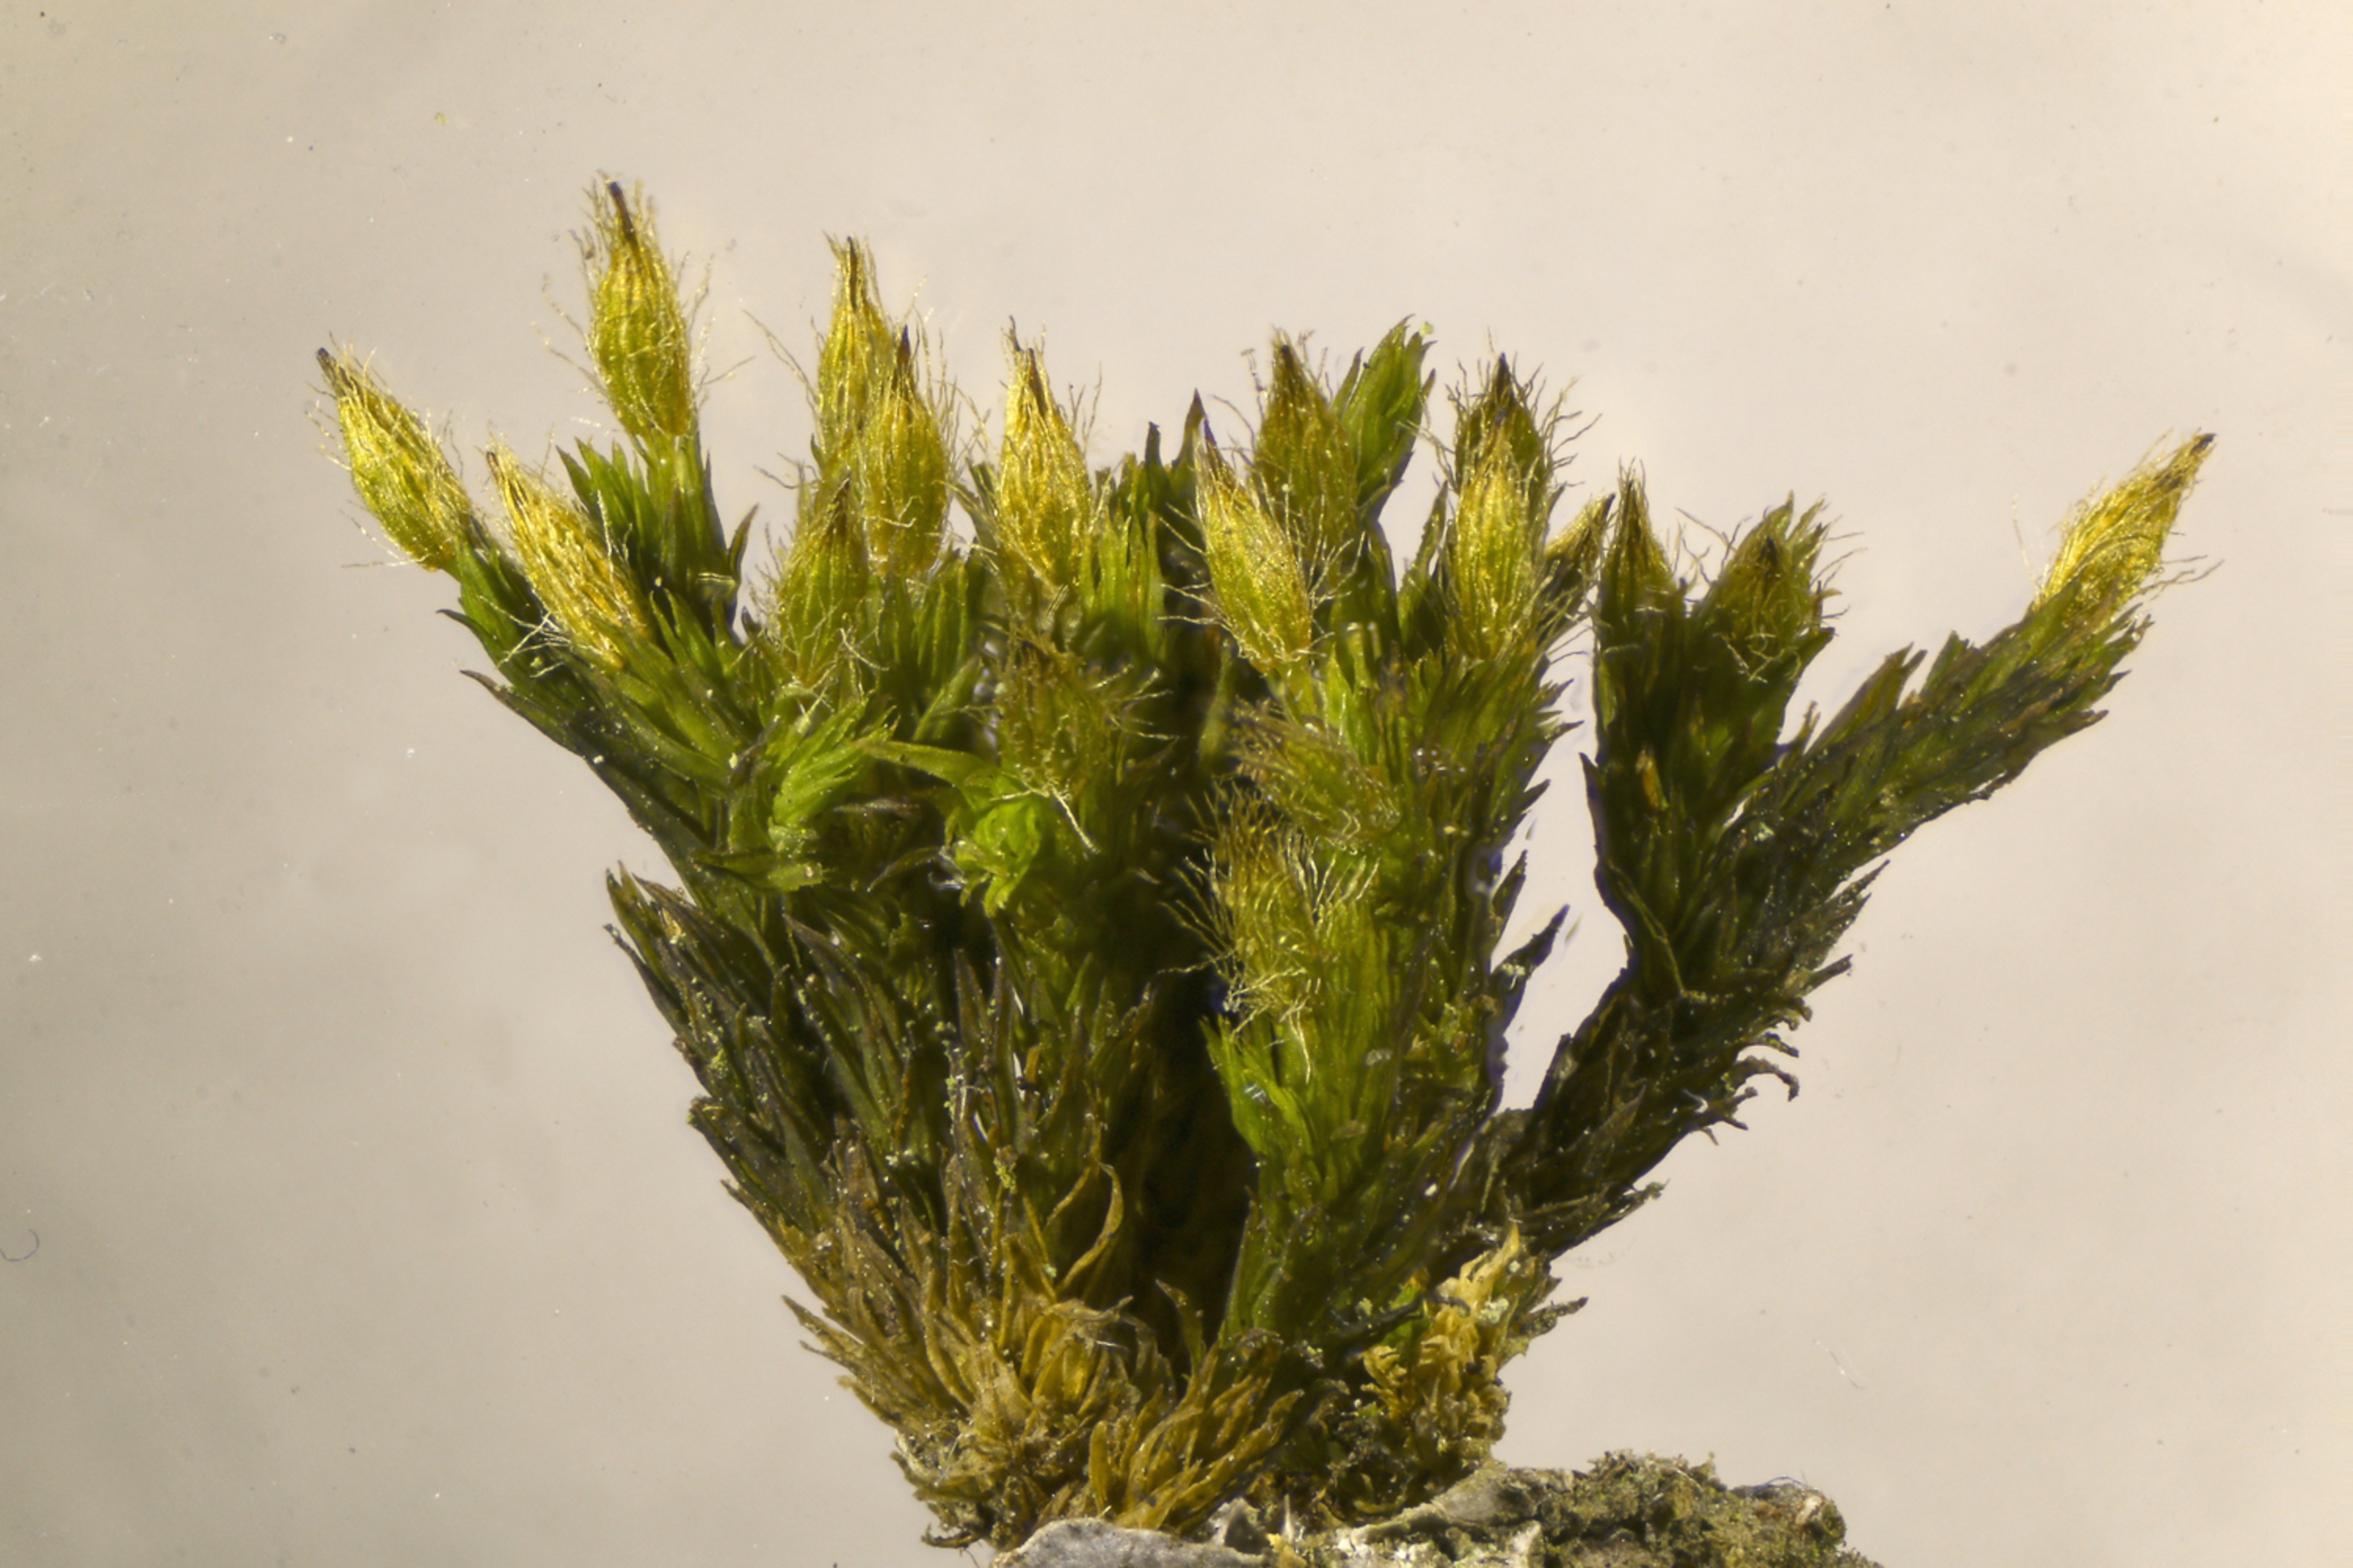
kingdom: Plantae
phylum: Bryophyta
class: Bryopsida
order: Orthotrichales
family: Orthotrichaceae
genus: Lewinskya
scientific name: Lewinskya speciosa
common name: Kortstribet furehætte
